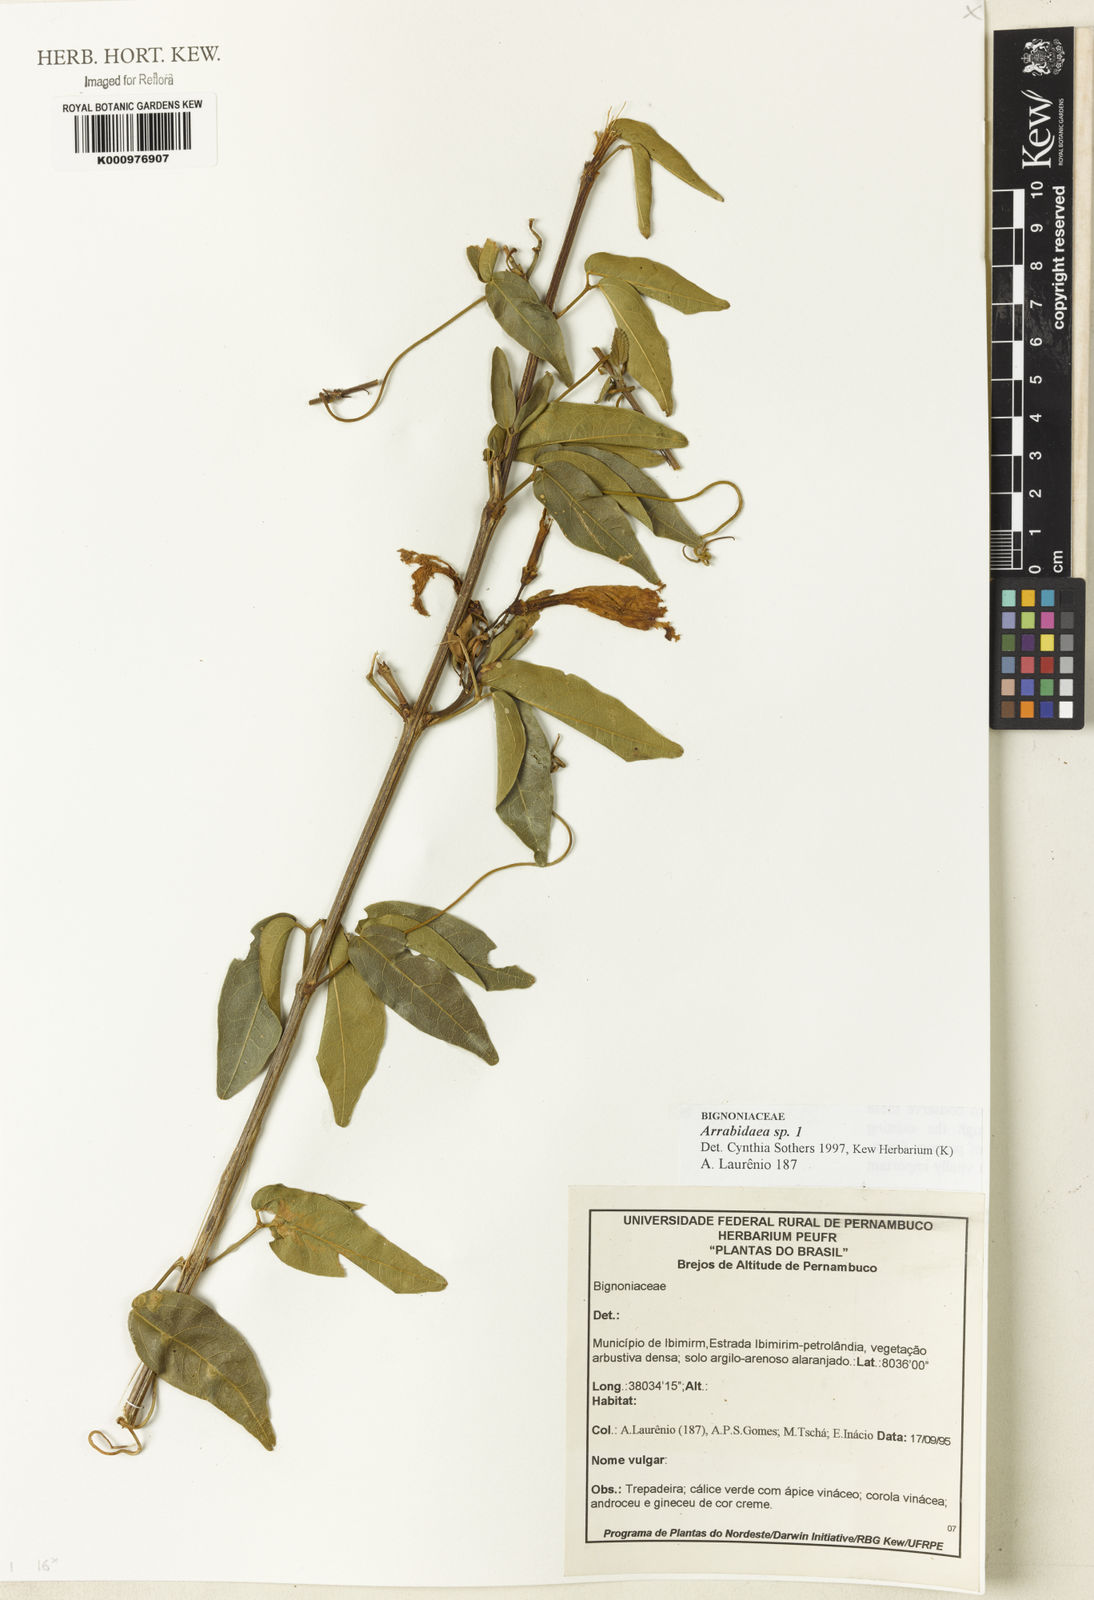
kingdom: Plantae
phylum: Tracheophyta
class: Magnoliopsida
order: Rosales
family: Rhamnaceae
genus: Arrabidaea
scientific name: Arrabidaea
